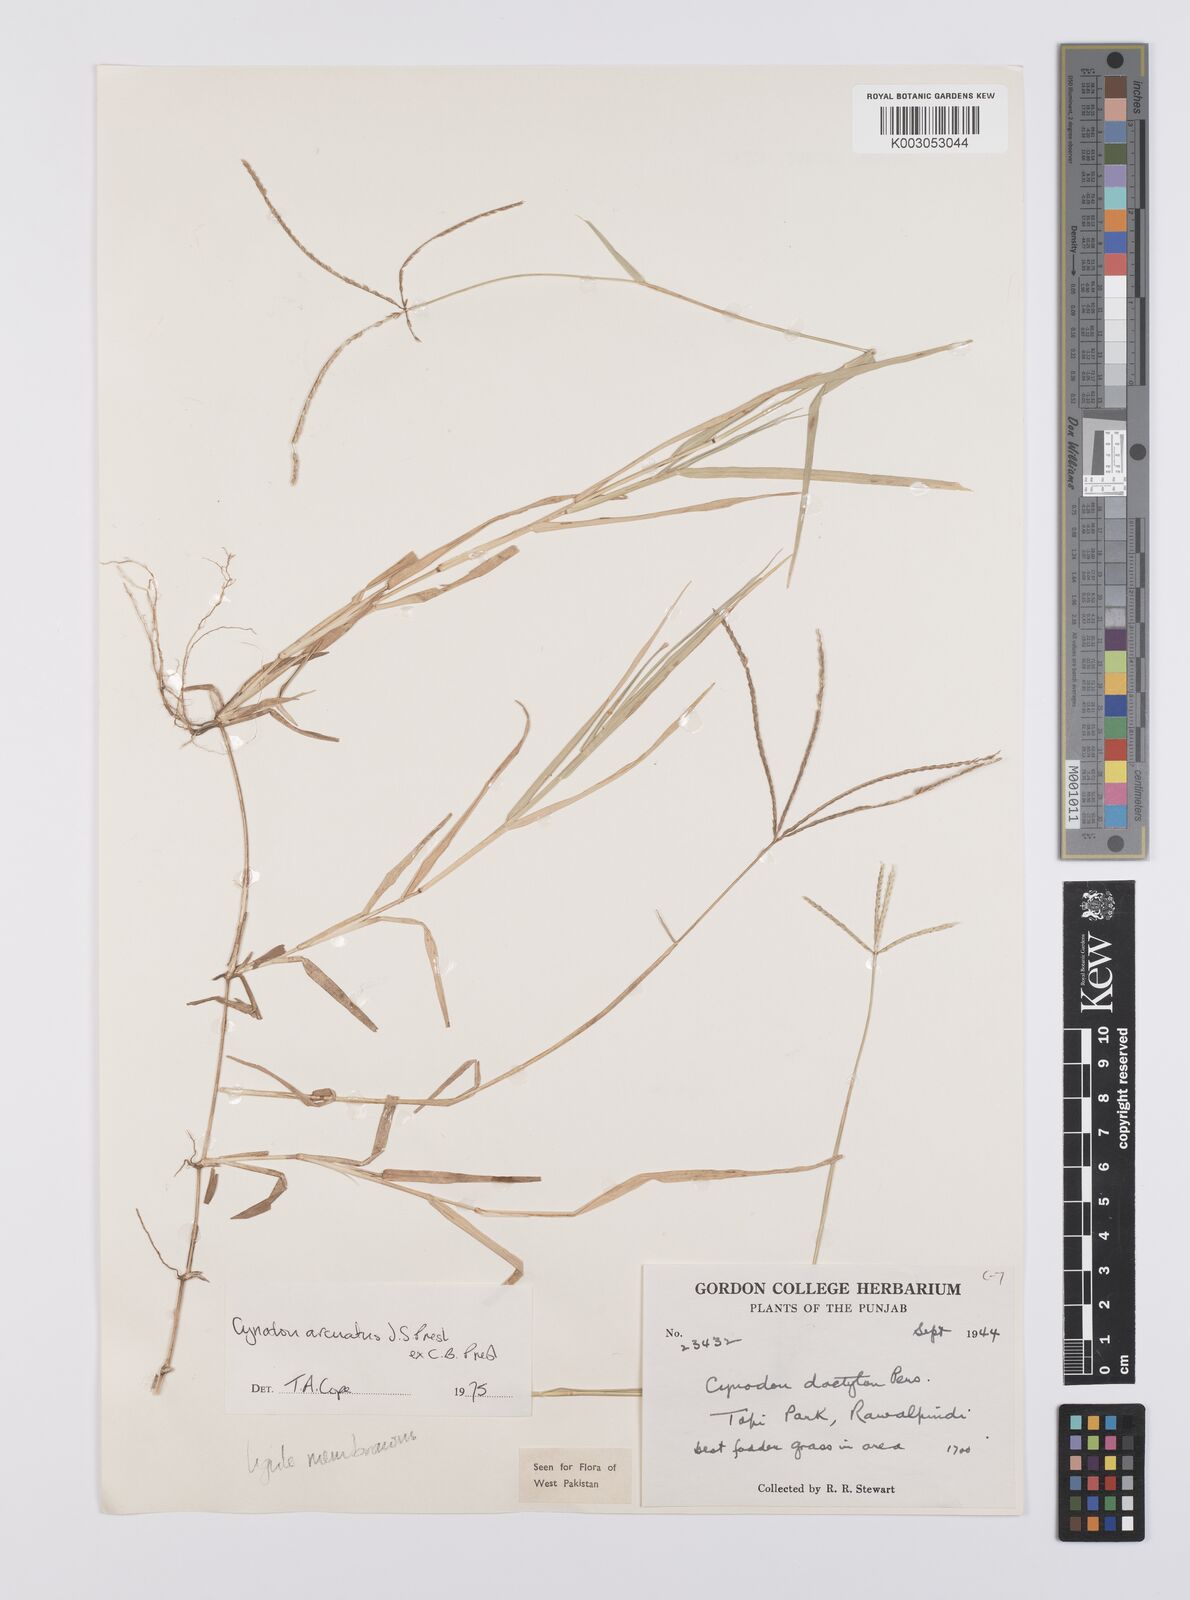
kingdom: Plantae
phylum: Tracheophyta
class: Liliopsida
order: Poales
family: Poaceae
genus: Cynodon
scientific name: Cynodon radiatus
